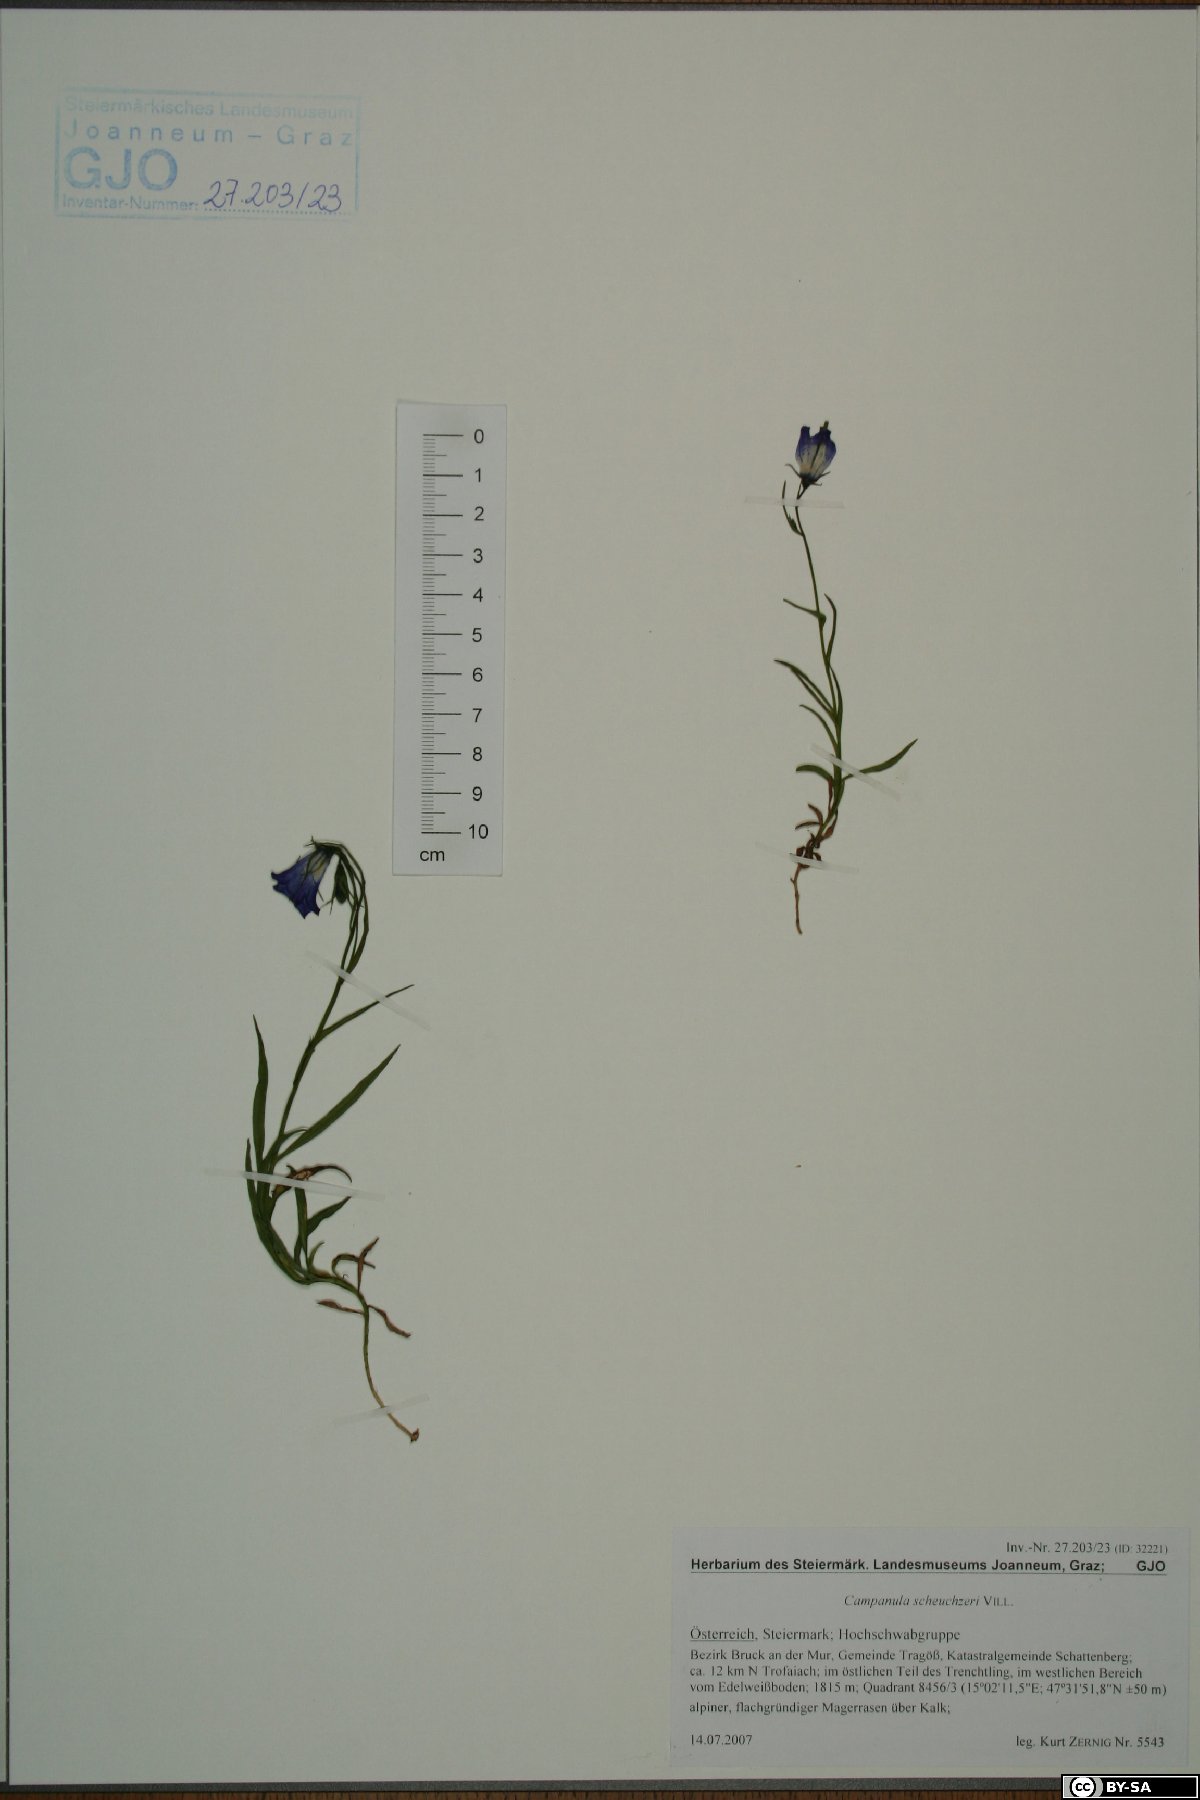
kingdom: Plantae
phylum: Tracheophyta
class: Magnoliopsida
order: Asterales
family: Campanulaceae
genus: Campanula
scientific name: Campanula scheuchzeri
